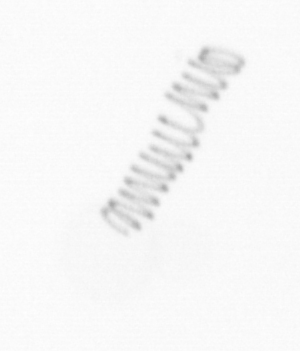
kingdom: Chromista
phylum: Ochrophyta
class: Bacillariophyceae
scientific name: Bacillariophyceae
